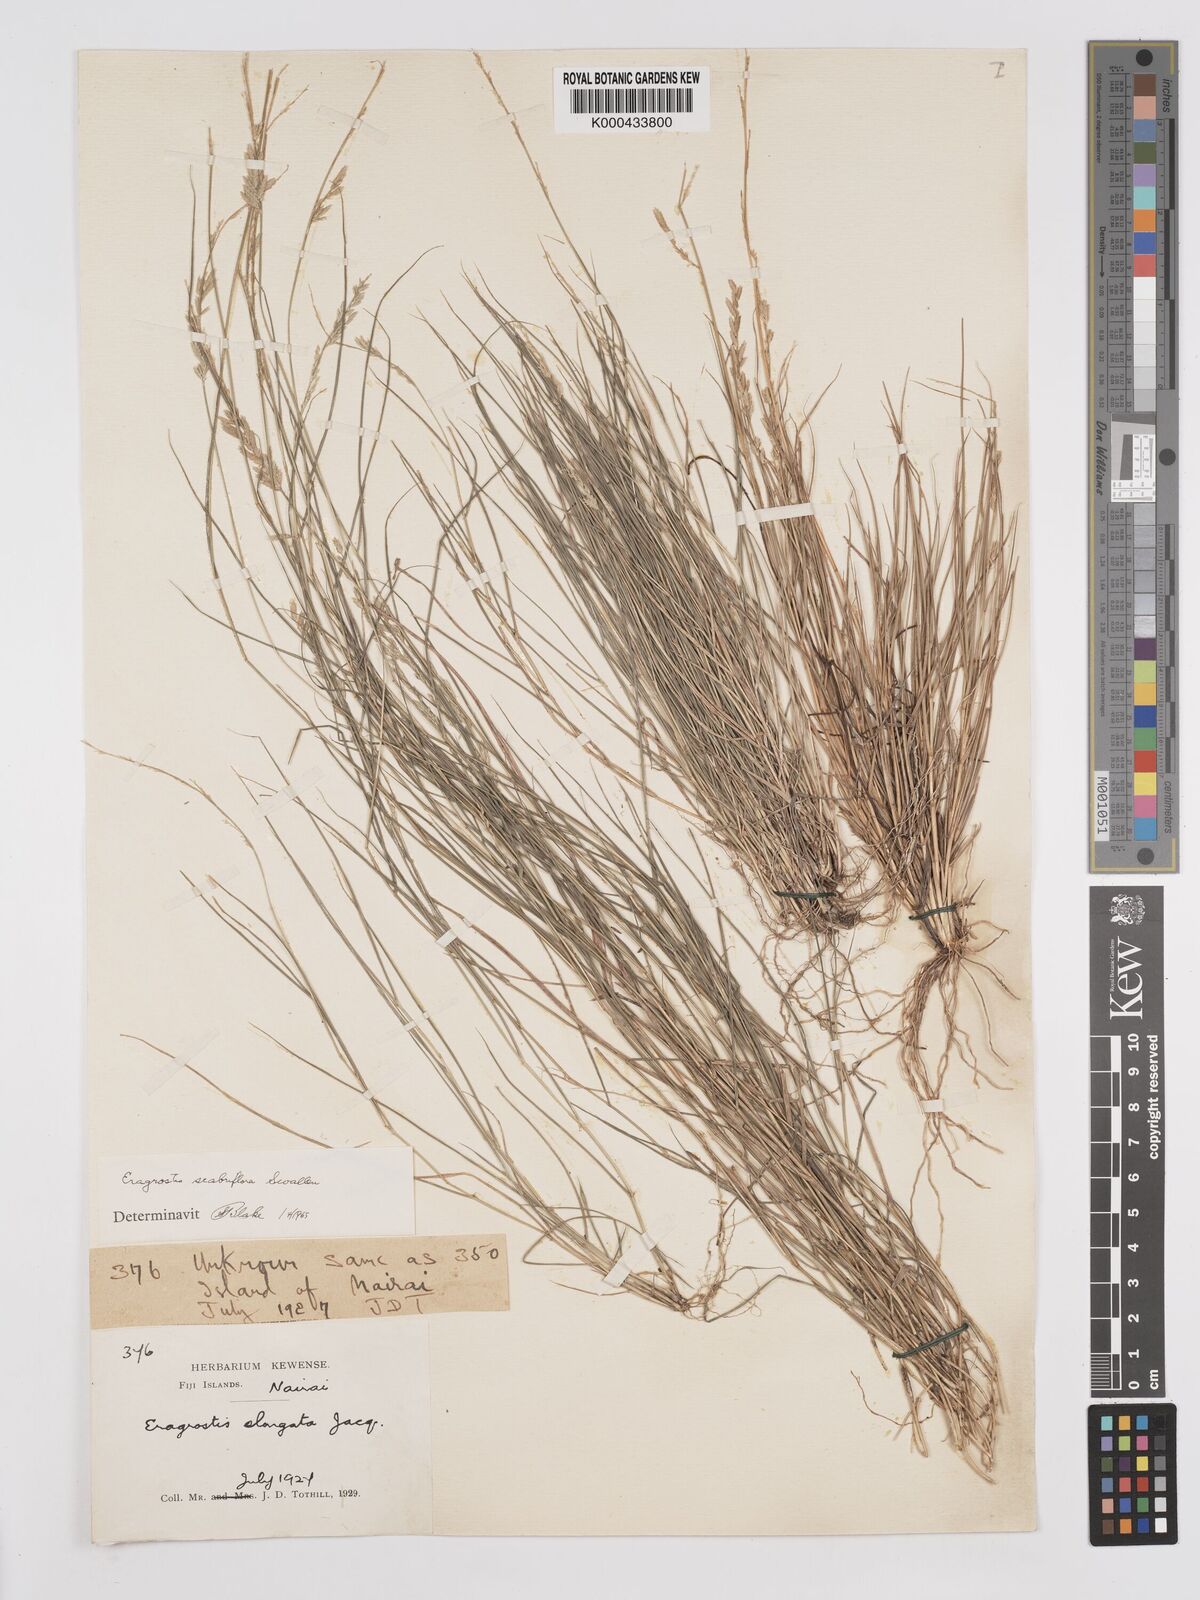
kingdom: Plantae
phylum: Tracheophyta
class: Liliopsida
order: Poales
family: Poaceae
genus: Eragrostis
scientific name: Eragrostis scabriflora
